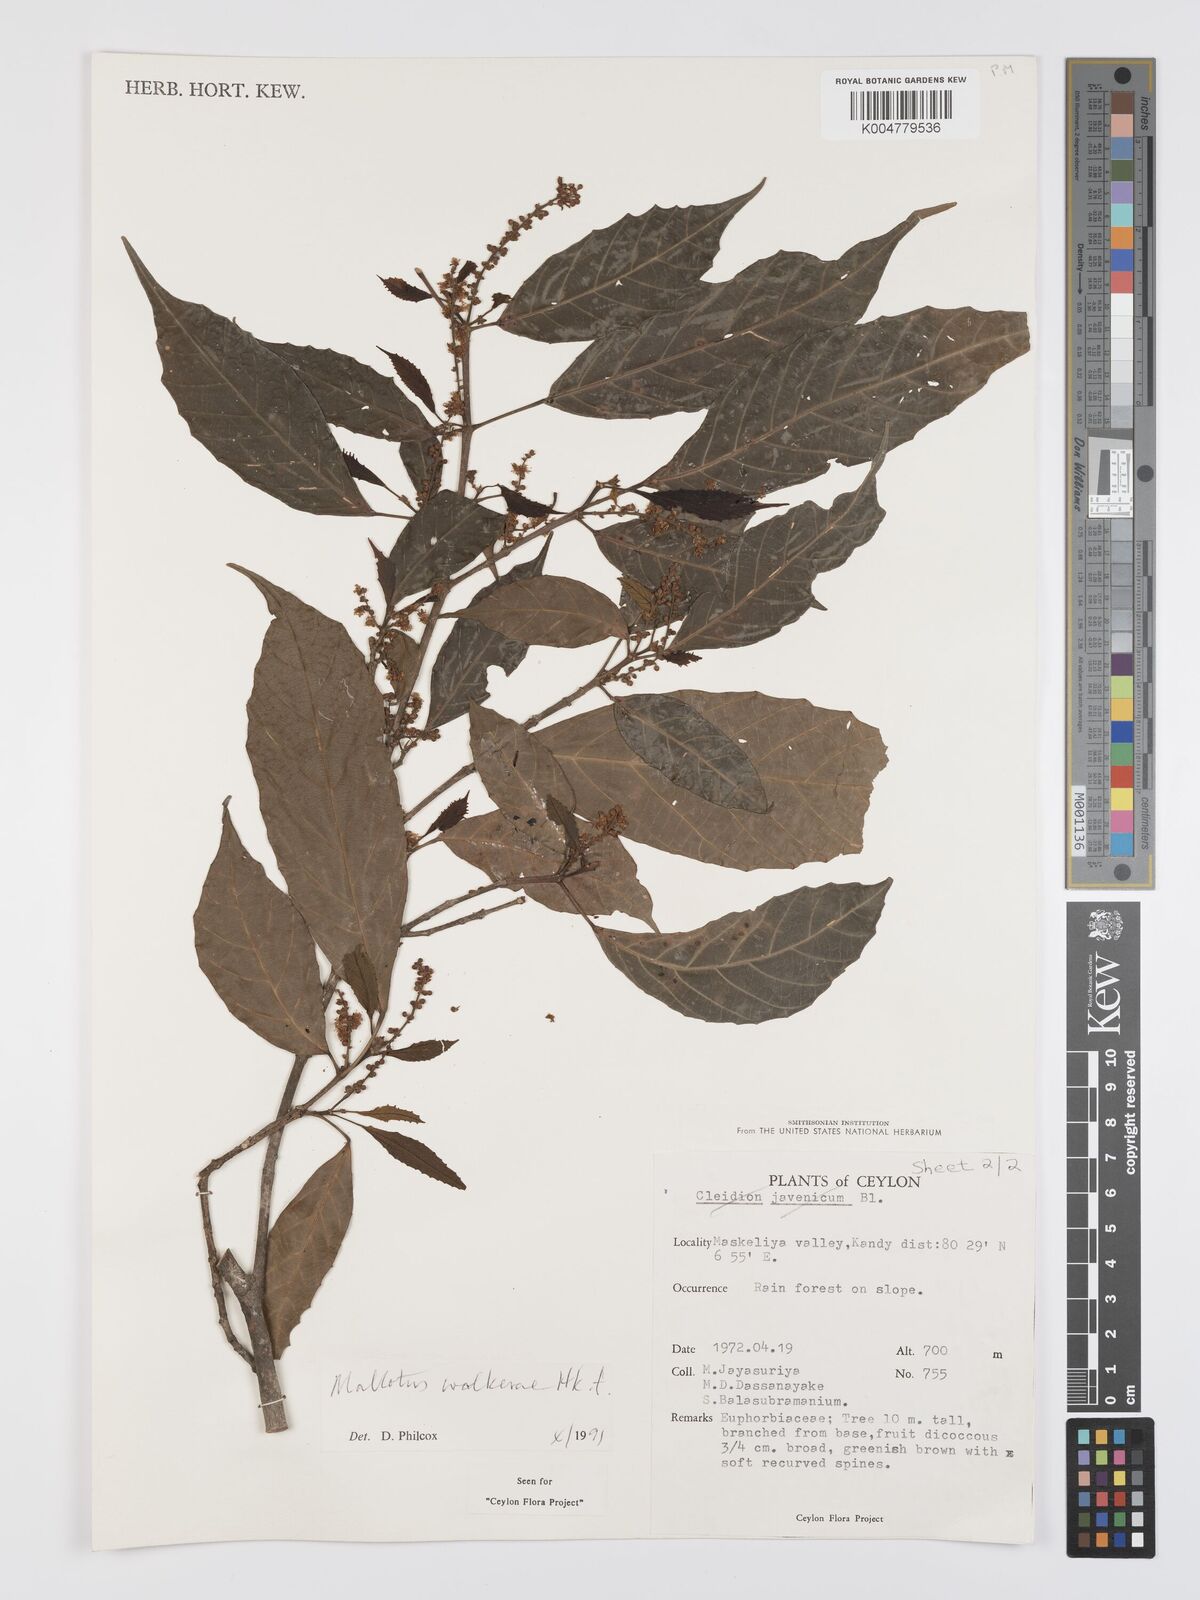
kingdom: Plantae
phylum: Tracheophyta
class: Magnoliopsida
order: Malpighiales
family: Euphorbiaceae
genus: Mallotus
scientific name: Mallotus resinosus
